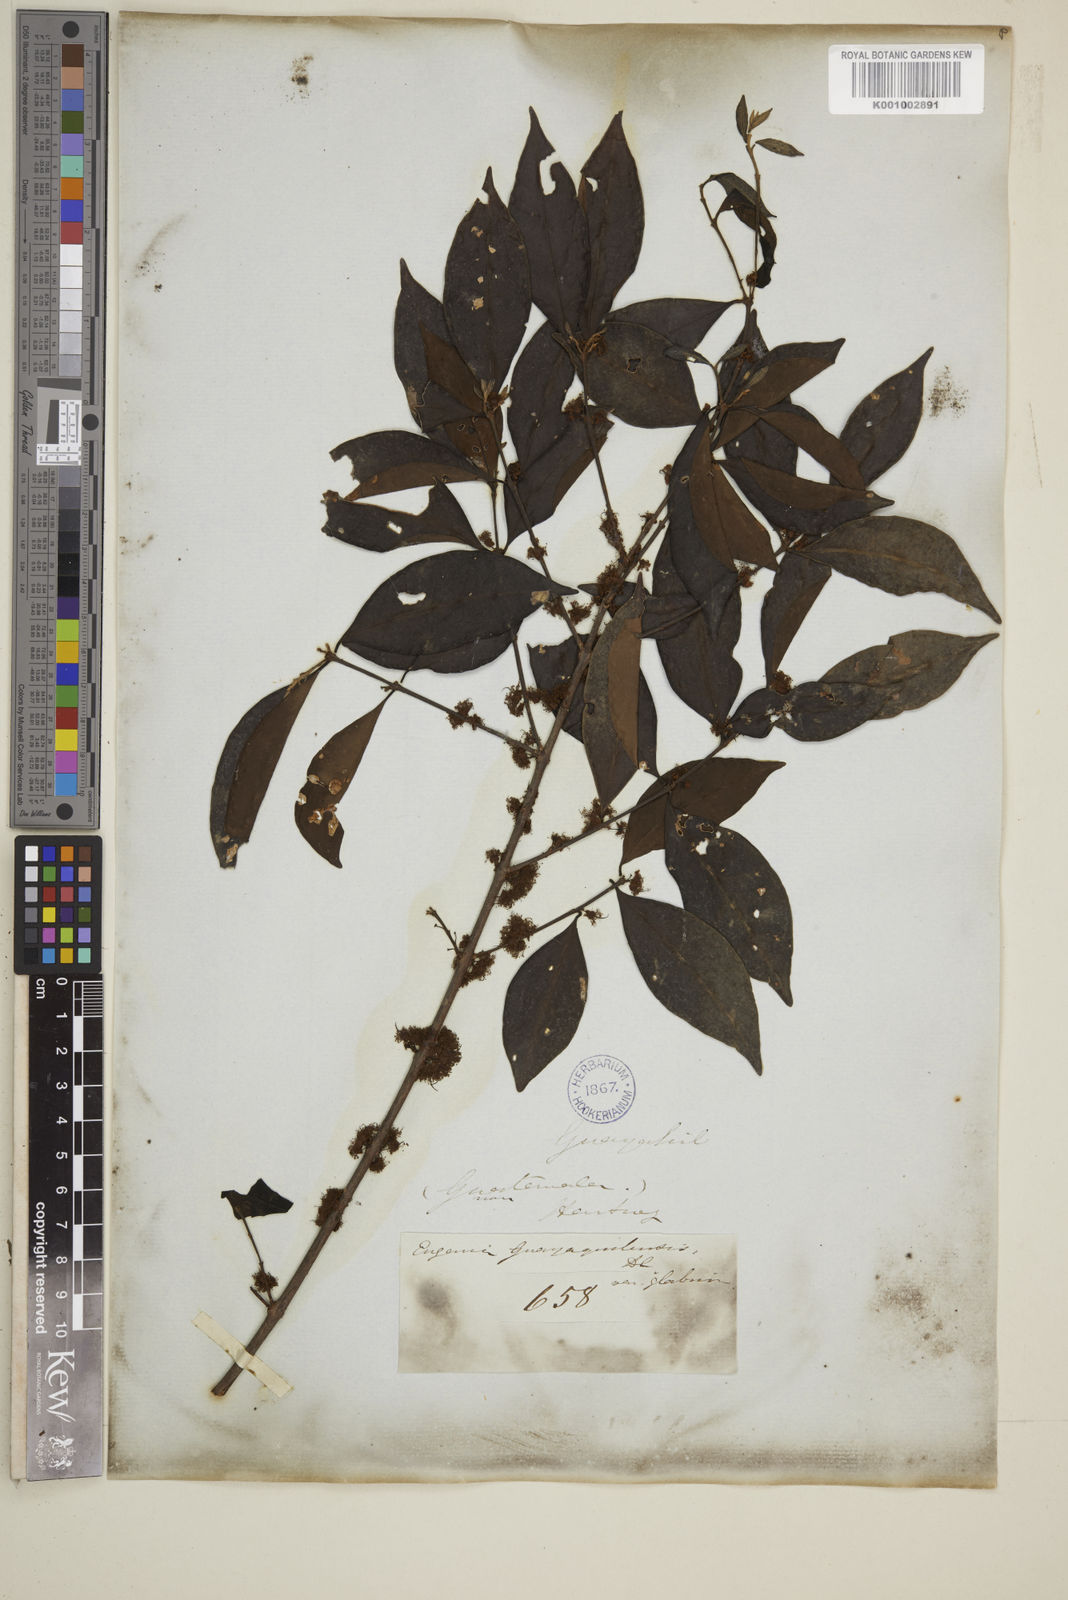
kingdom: Plantae
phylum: Tracheophyta
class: Magnoliopsida
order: Myrtales
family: Myrtaceae
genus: Eugenia
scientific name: Eugenia guayaquilensis
